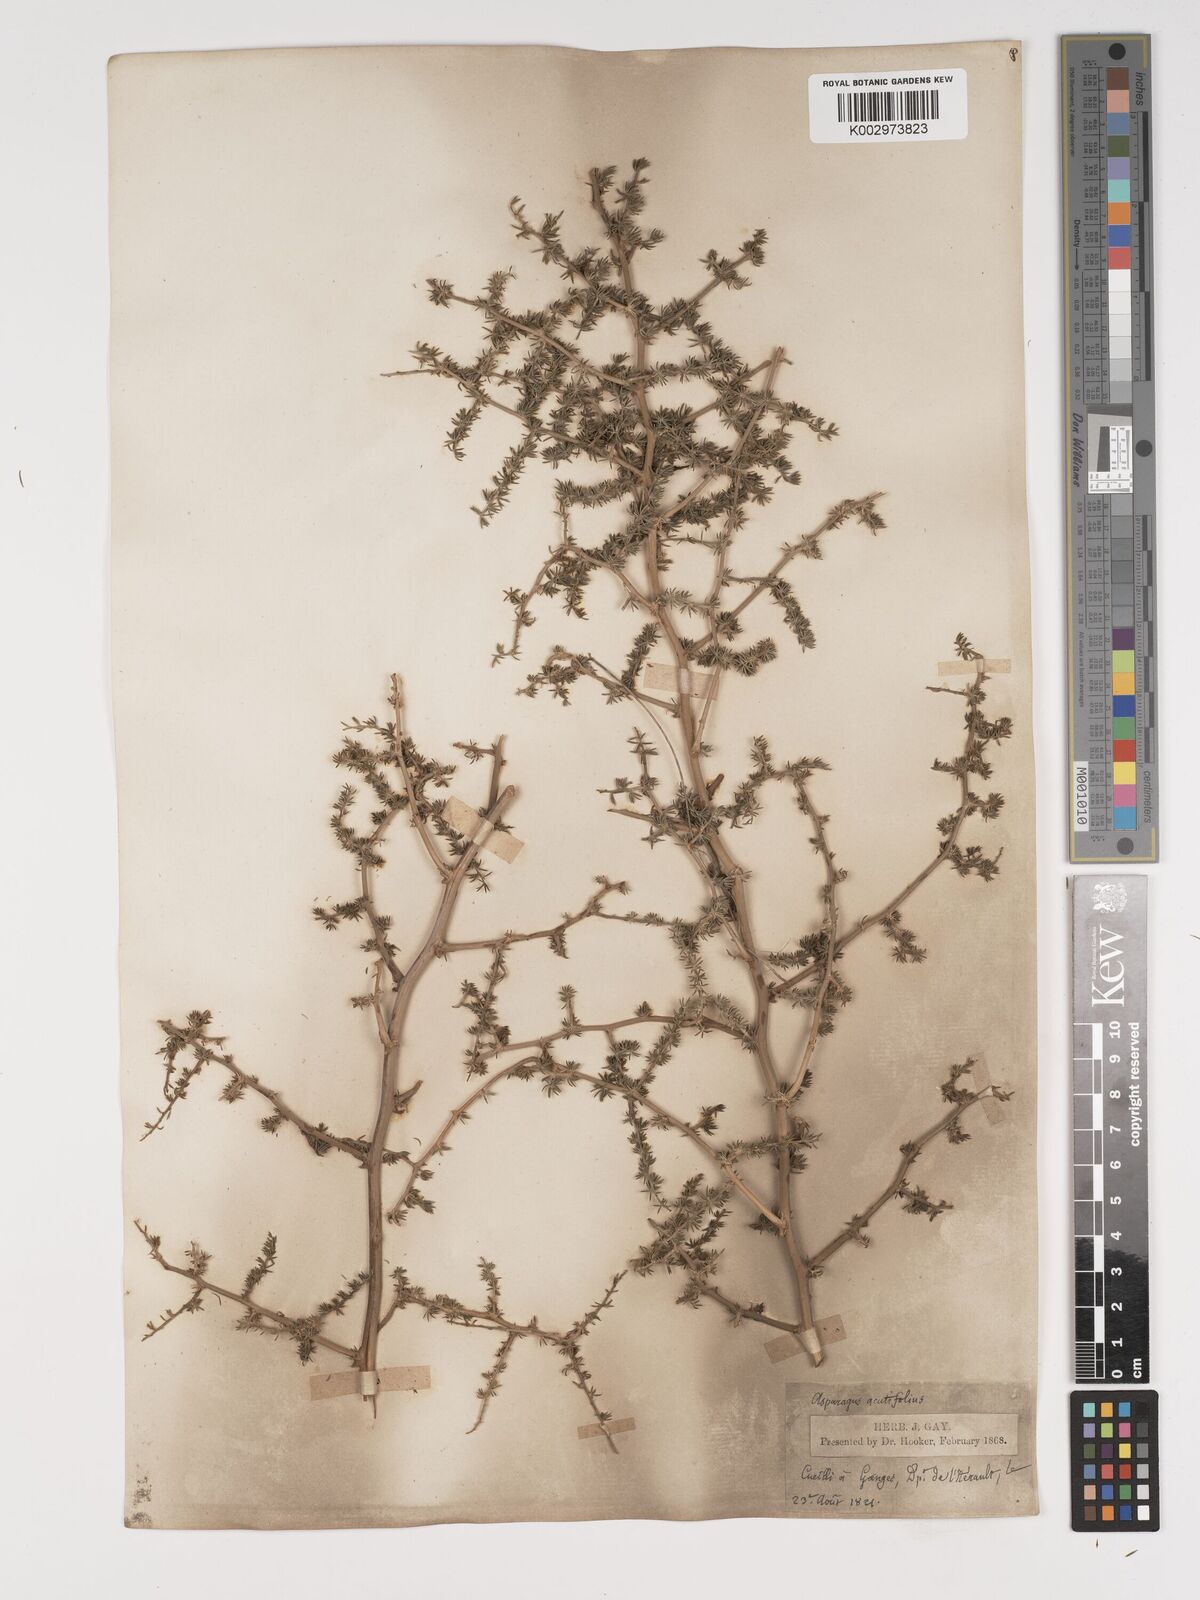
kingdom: Plantae
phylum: Tracheophyta
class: Liliopsida
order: Asparagales
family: Asparagaceae
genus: Asparagus
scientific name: Asparagus aethiopicus
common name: Sprenger's asparagus fern
